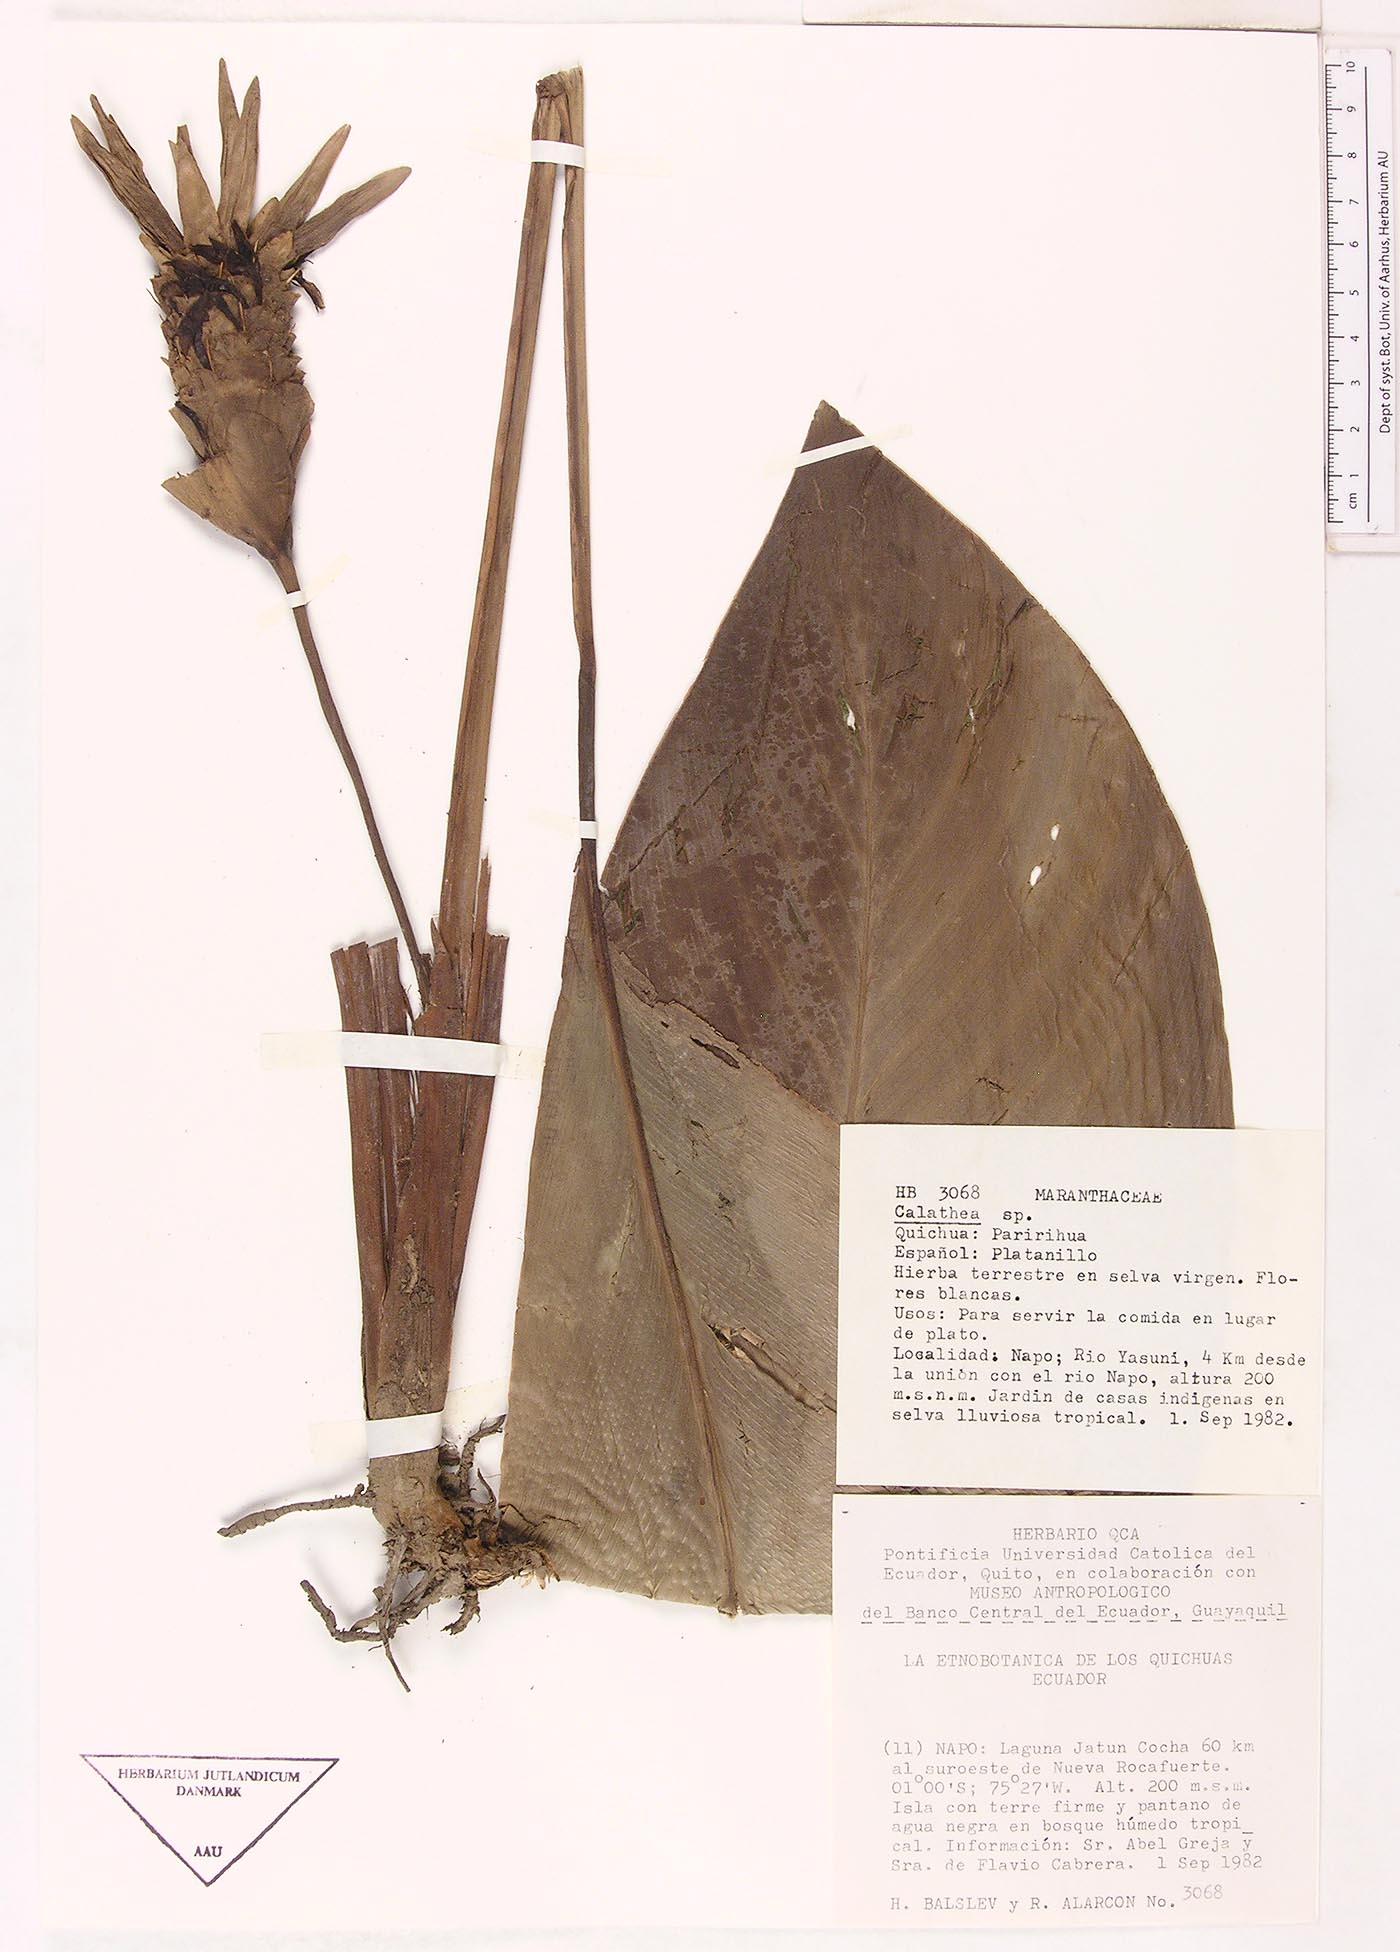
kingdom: Plantae
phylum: Tracheophyta
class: Magnoliopsida
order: Laurales
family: Lauraceae
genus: Goeppertia
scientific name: Goeppertia
